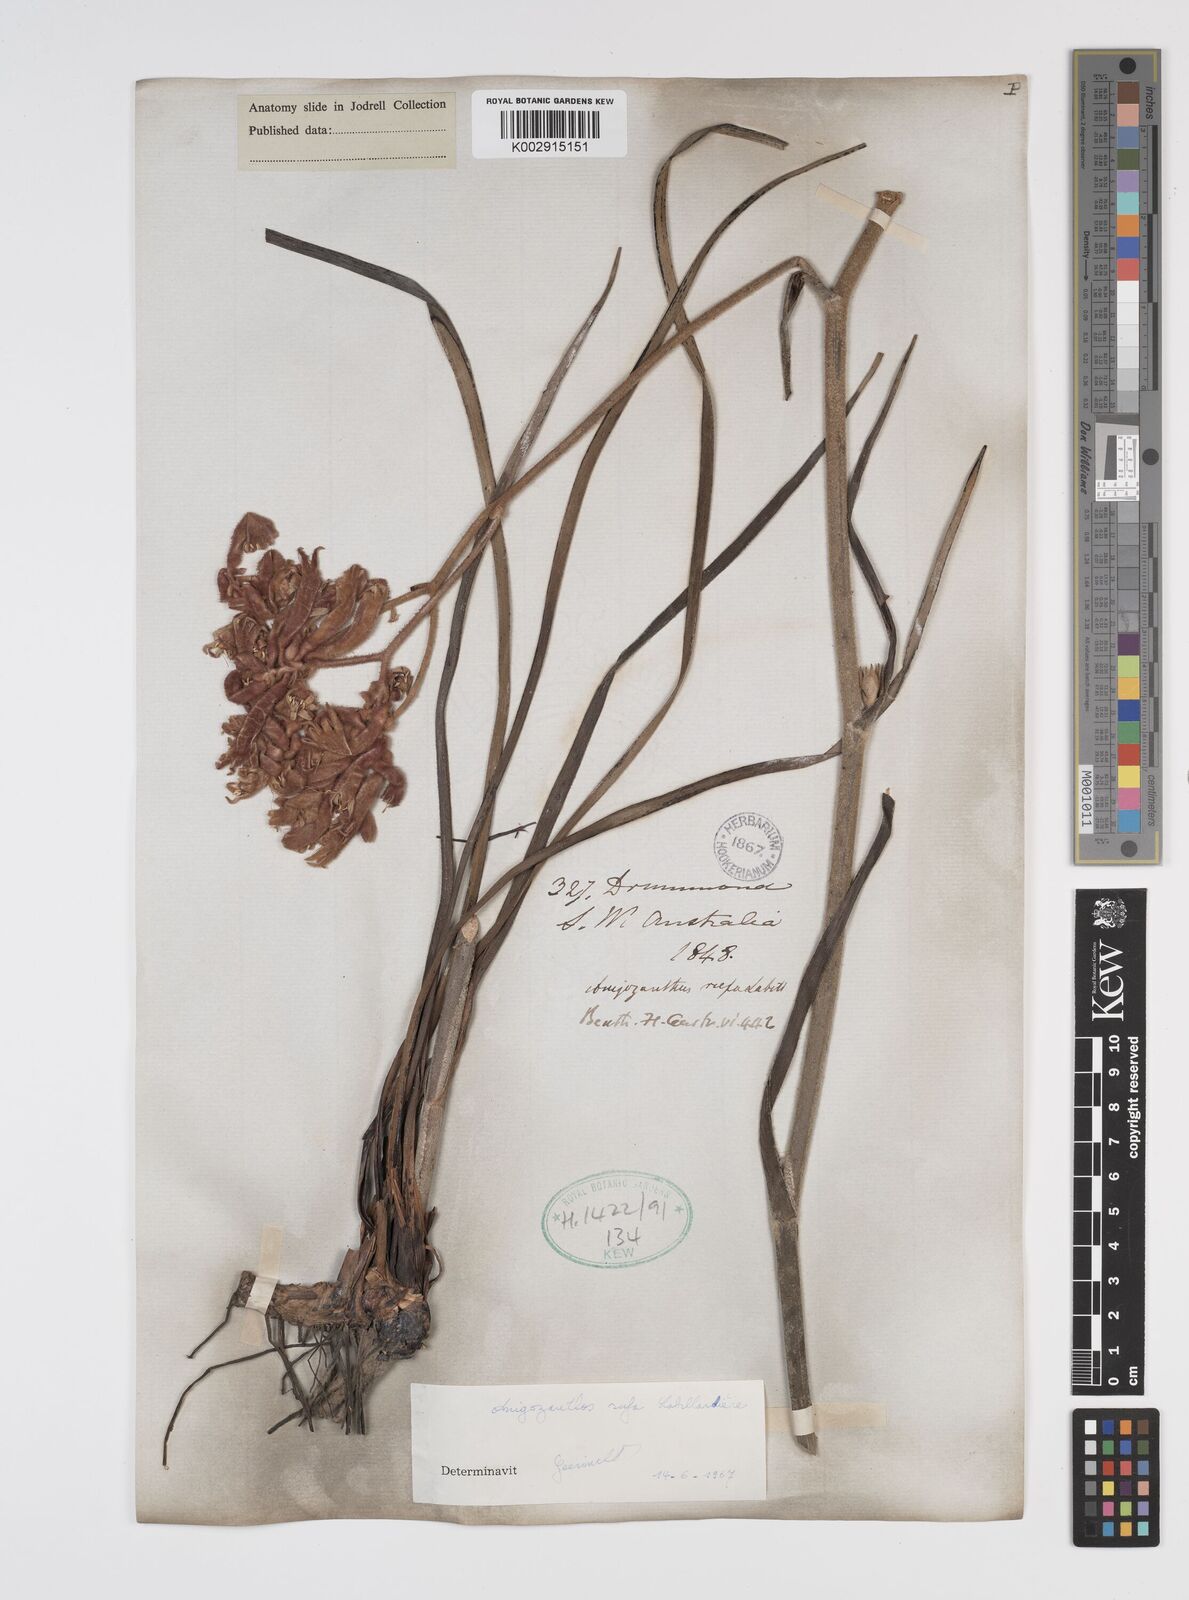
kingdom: Plantae
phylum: Tracheophyta
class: Liliopsida
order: Commelinales
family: Haemodoraceae
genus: Anigozanthos
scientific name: Anigozanthos rufus
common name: Red kangaroo-paw
